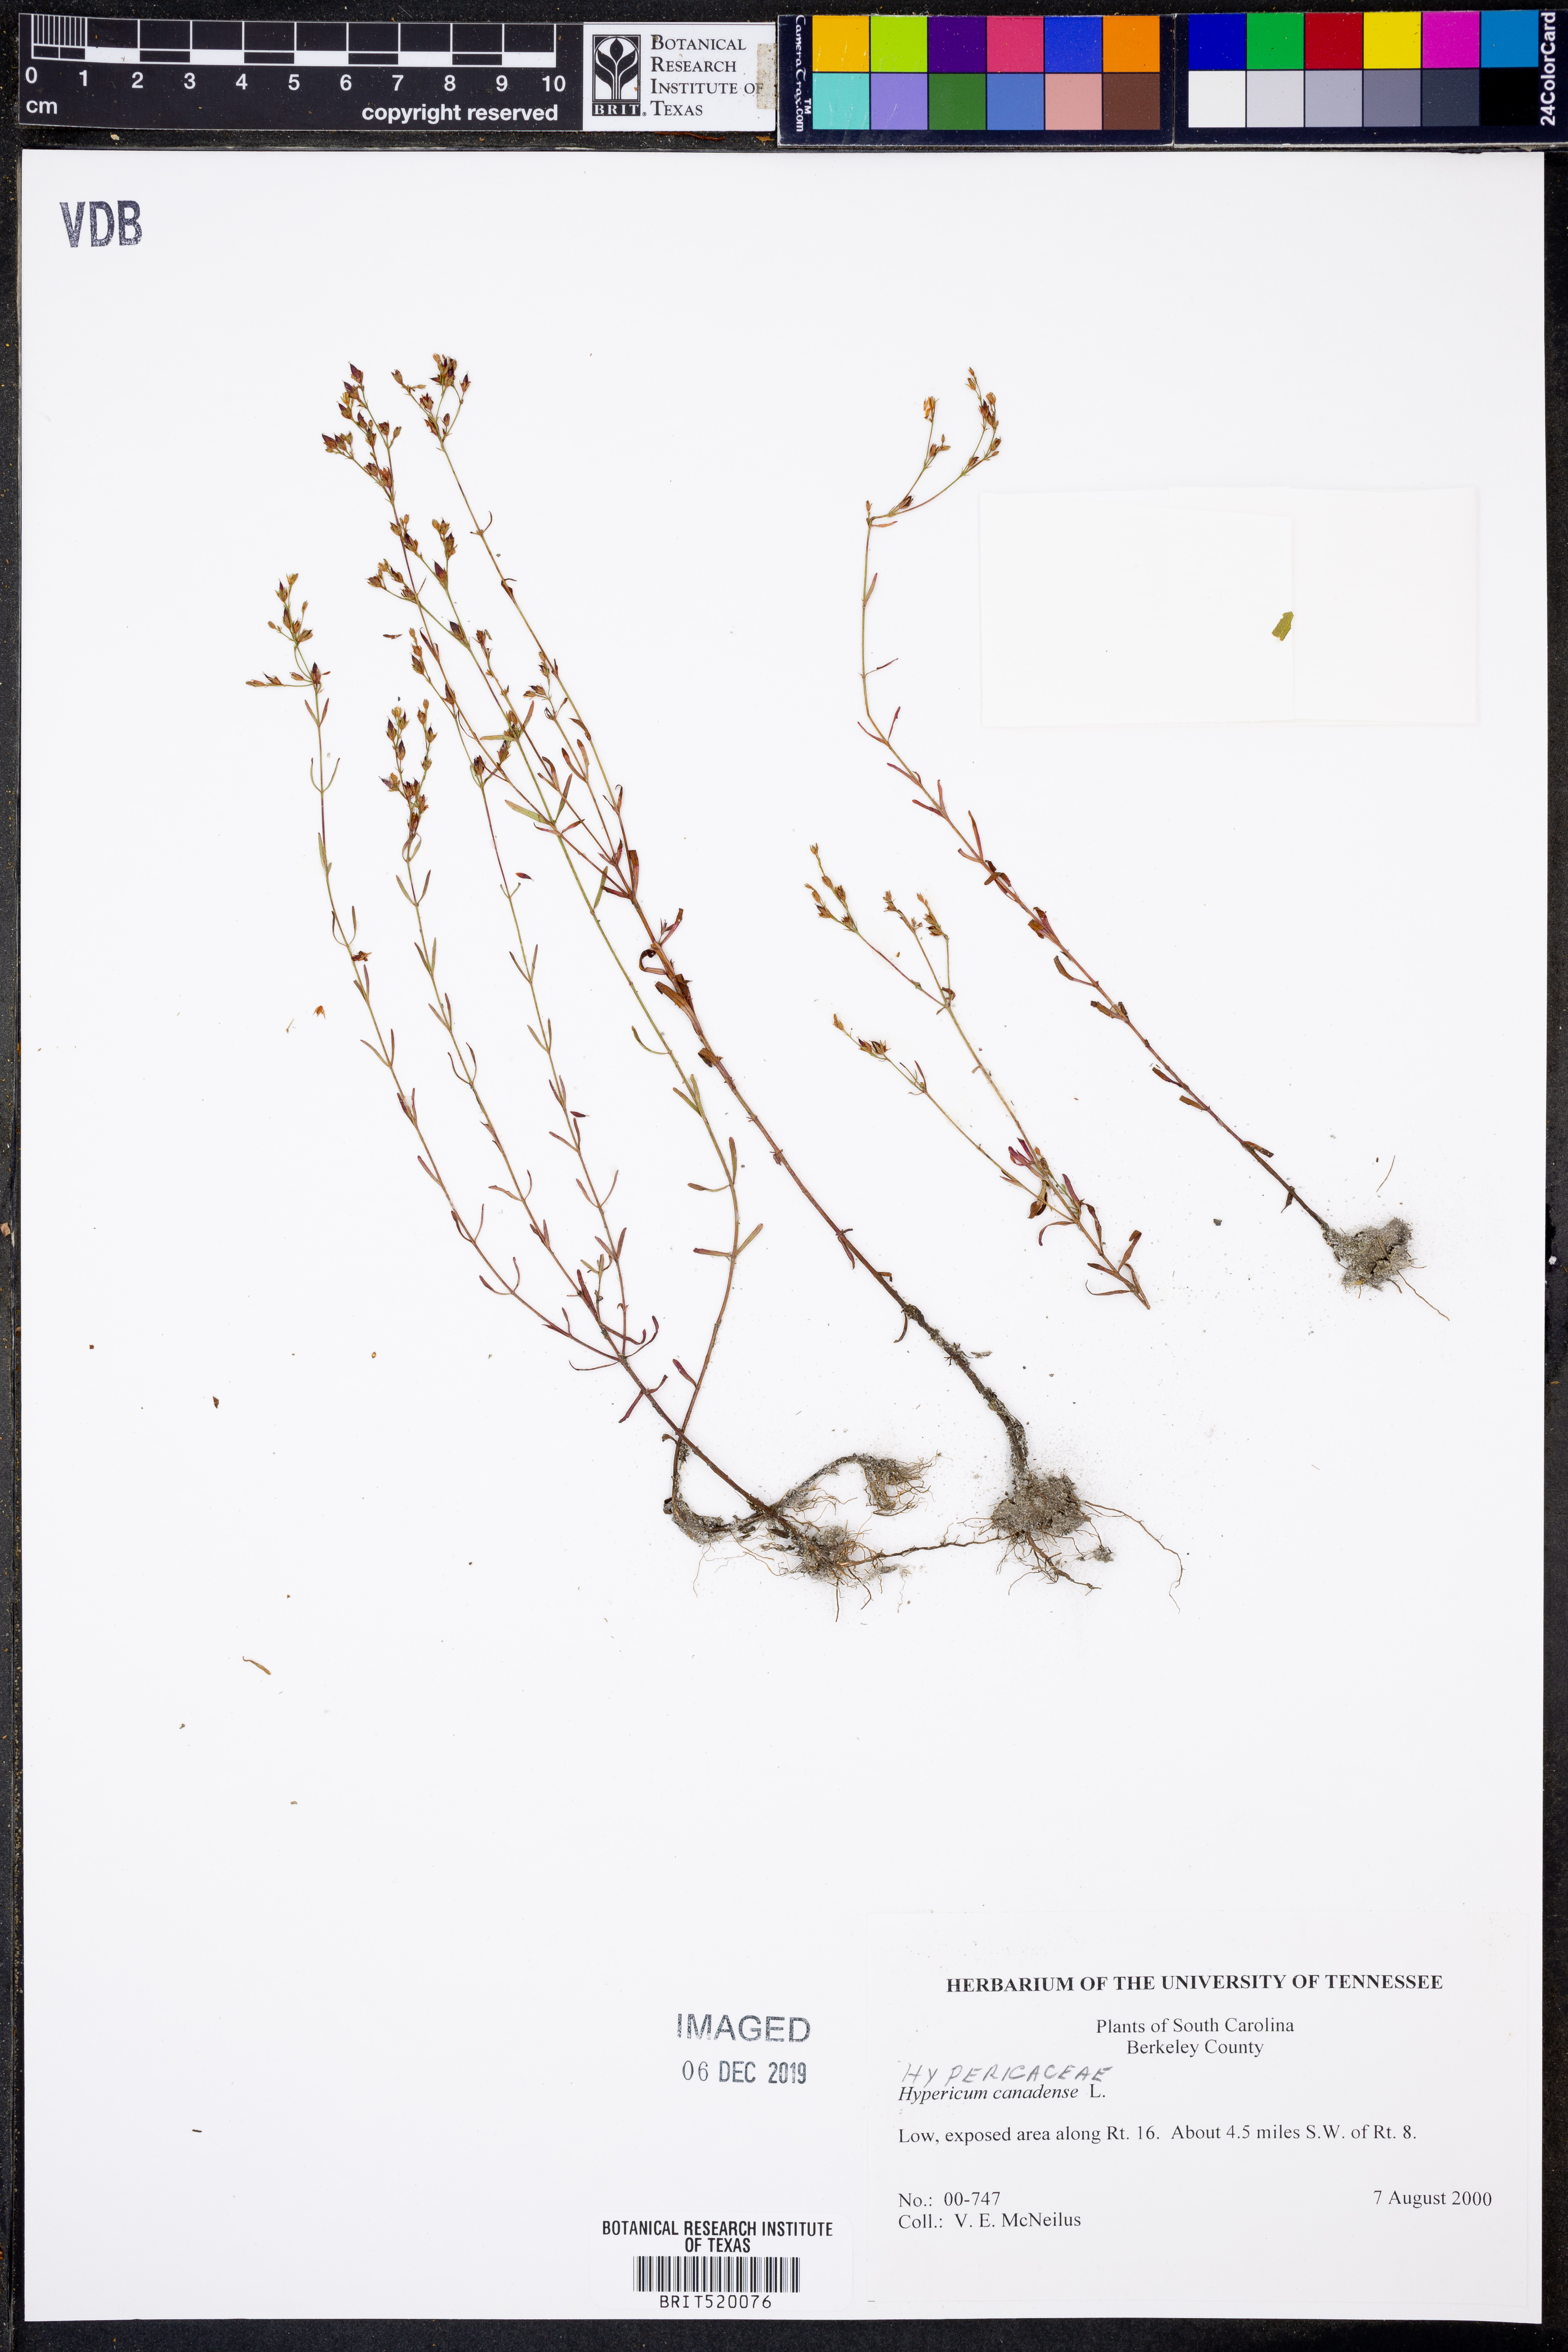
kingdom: Plantae
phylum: Tracheophyta
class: Magnoliopsida
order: Malpighiales
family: Hypericaceae
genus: Hypericum
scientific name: Hypericum canadense
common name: Irish st. john's-wort
